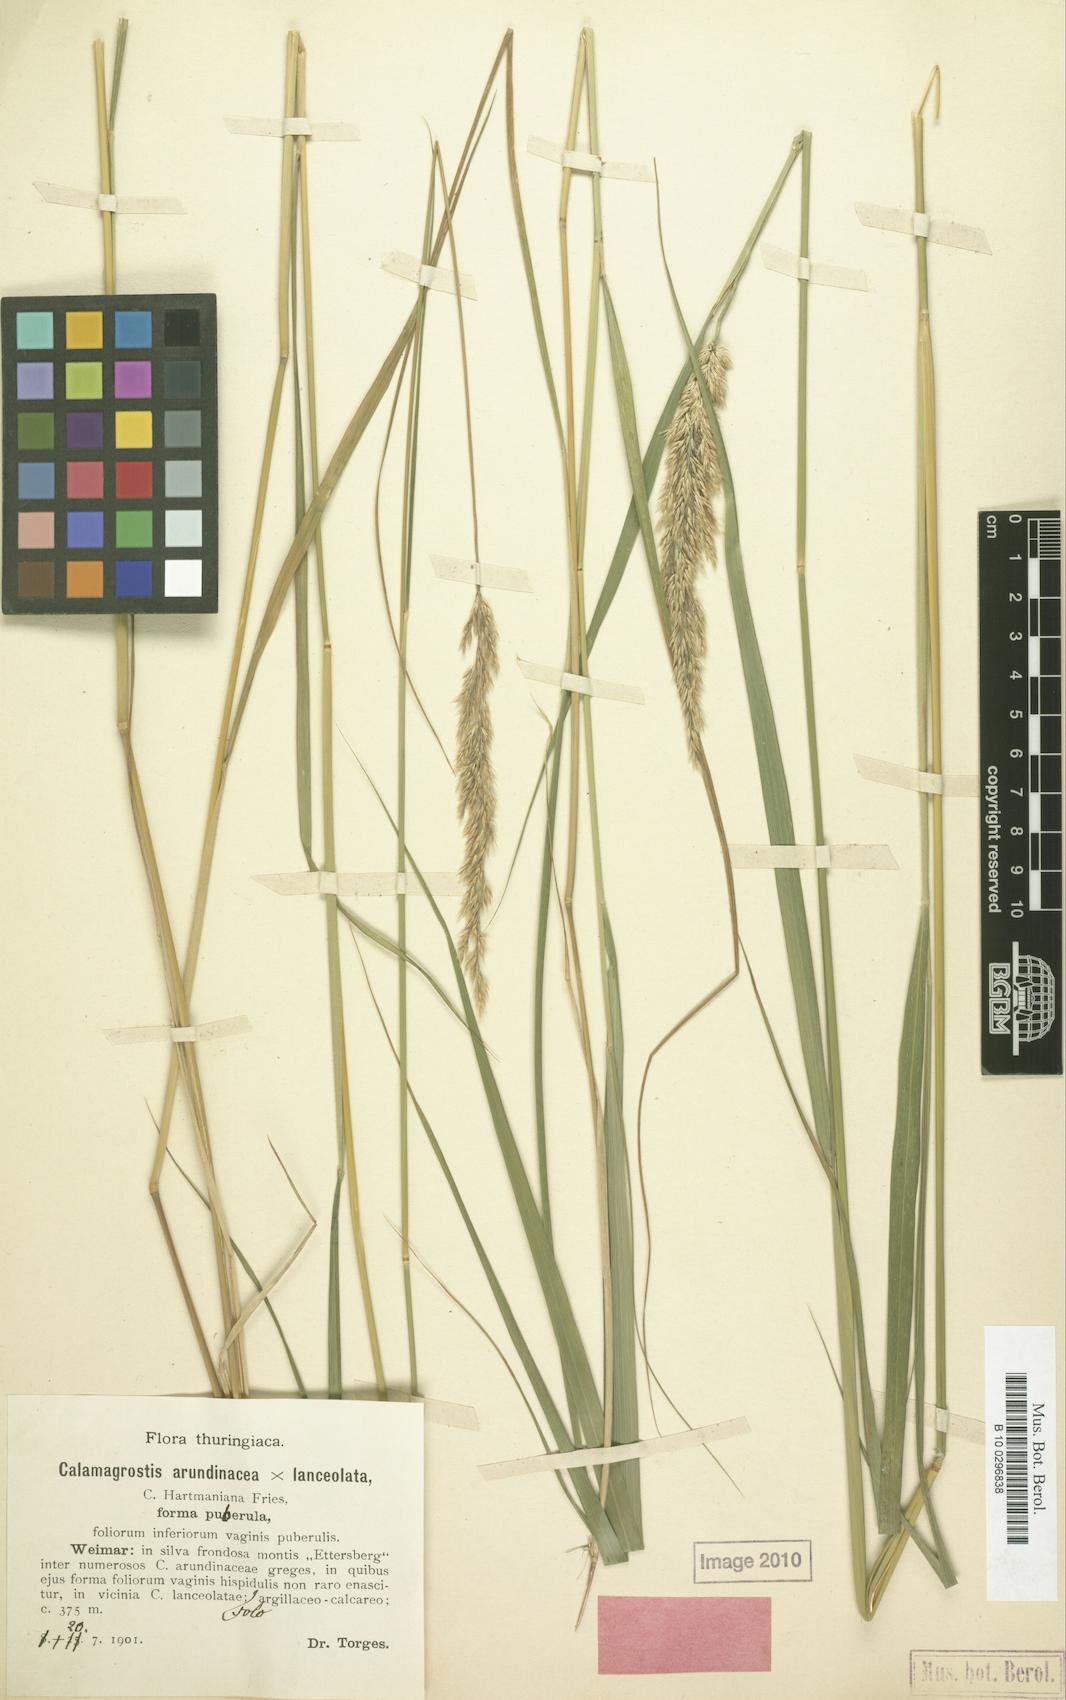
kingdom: Plantae
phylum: Tracheophyta
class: Liliopsida
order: Poales
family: Poaceae
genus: Calamagrostis
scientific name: Calamagrostis hartmaniana
